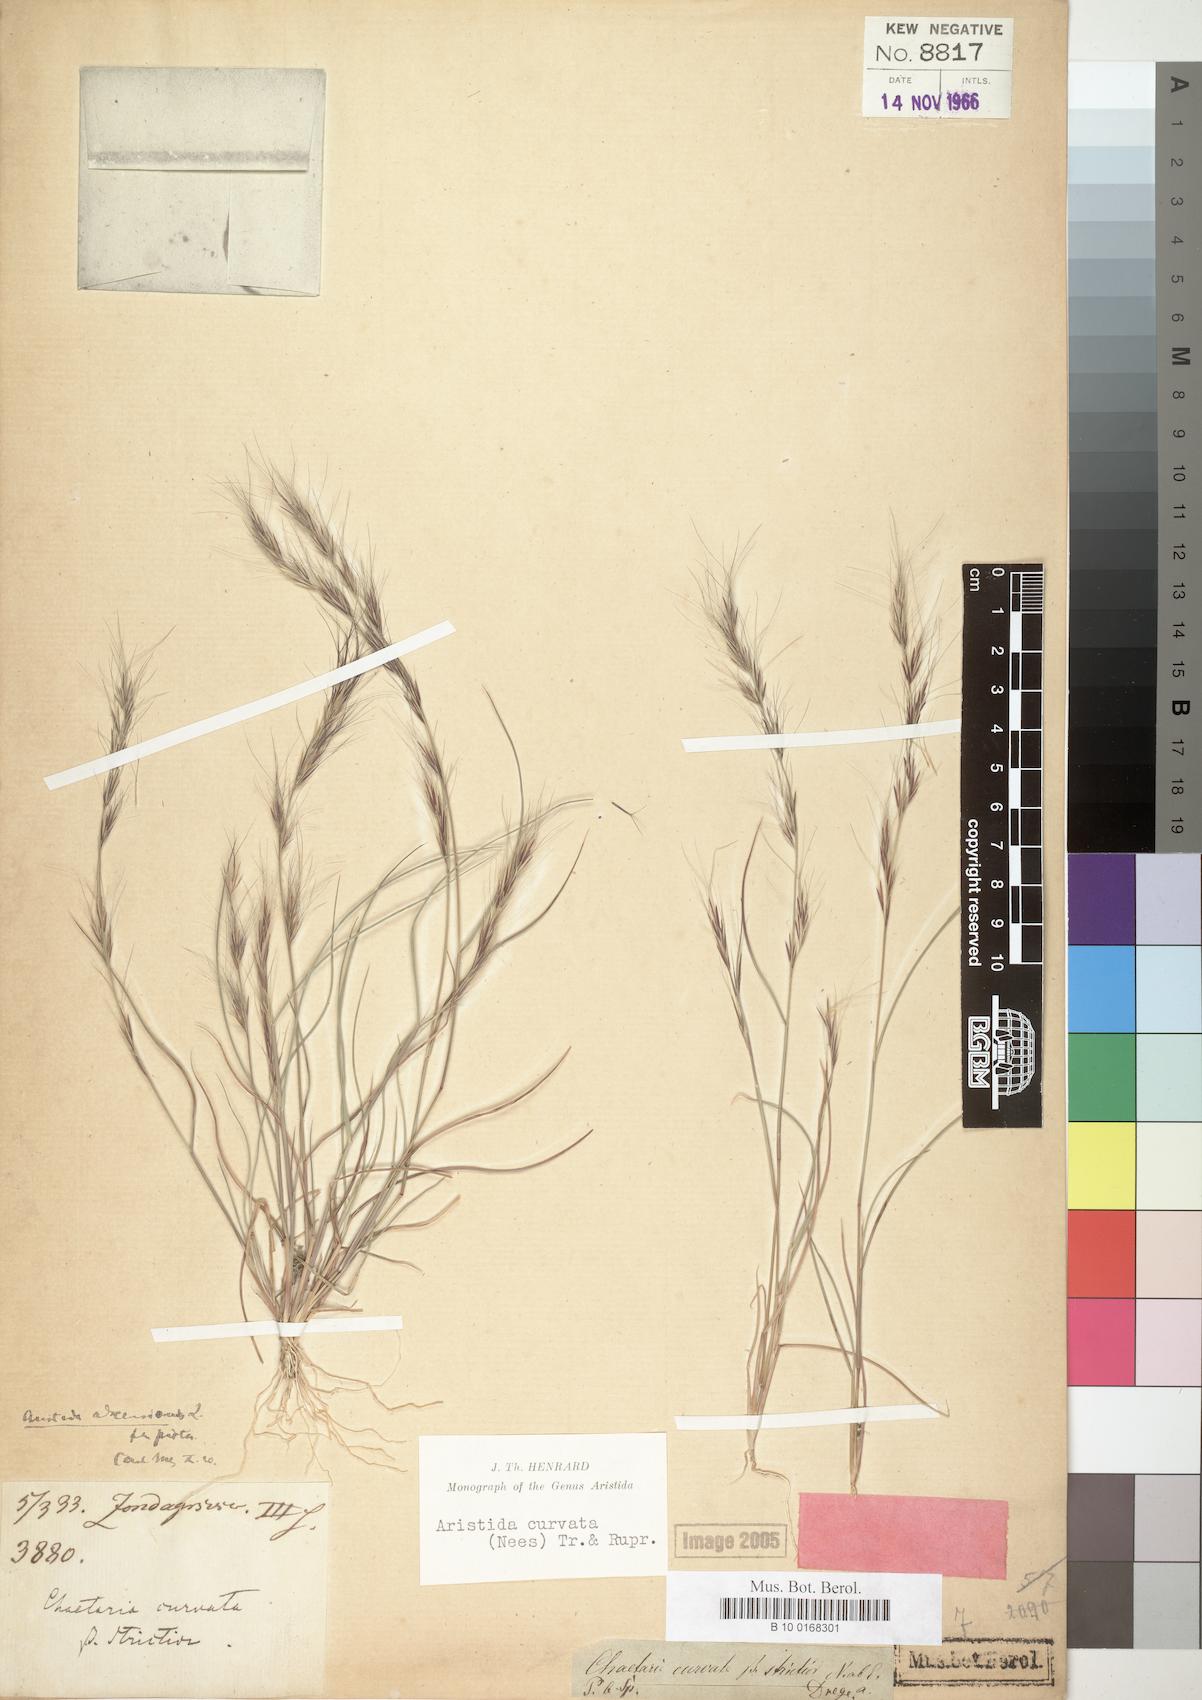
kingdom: Plantae
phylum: Tracheophyta
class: Liliopsida
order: Poales
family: Poaceae
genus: Aristida
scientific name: Aristida adscensionis
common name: Sixweeks threeawn
